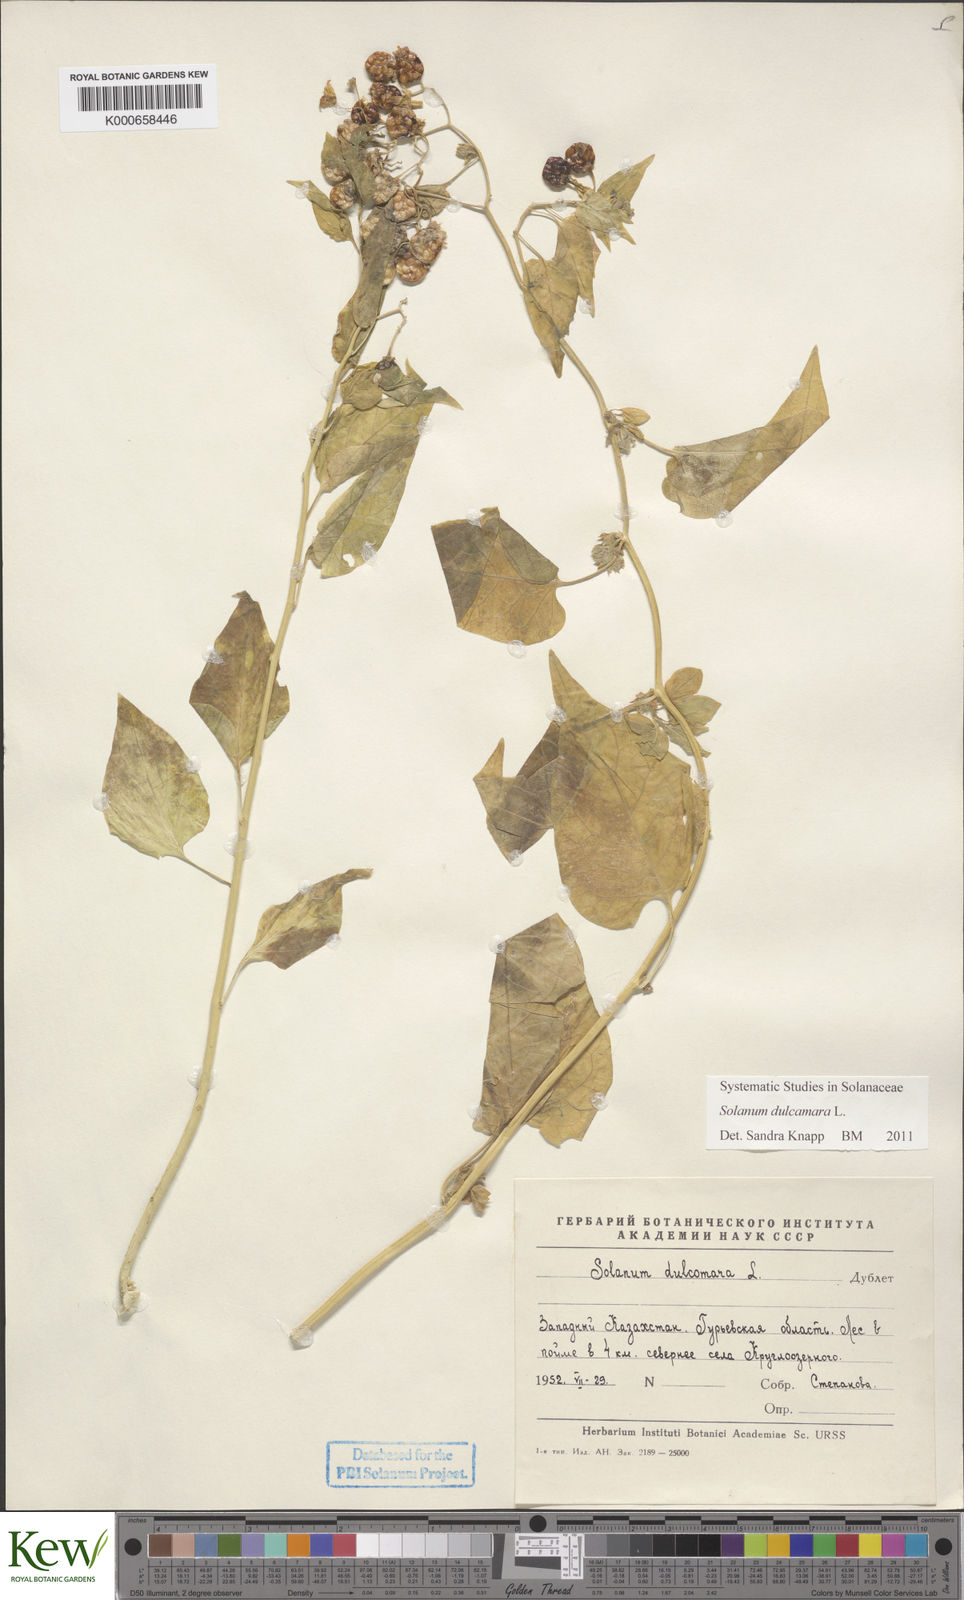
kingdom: Plantae
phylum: Tracheophyta
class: Magnoliopsida
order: Solanales
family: Solanaceae
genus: Solanum
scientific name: Solanum dulcamara
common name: Climbing nightshade
